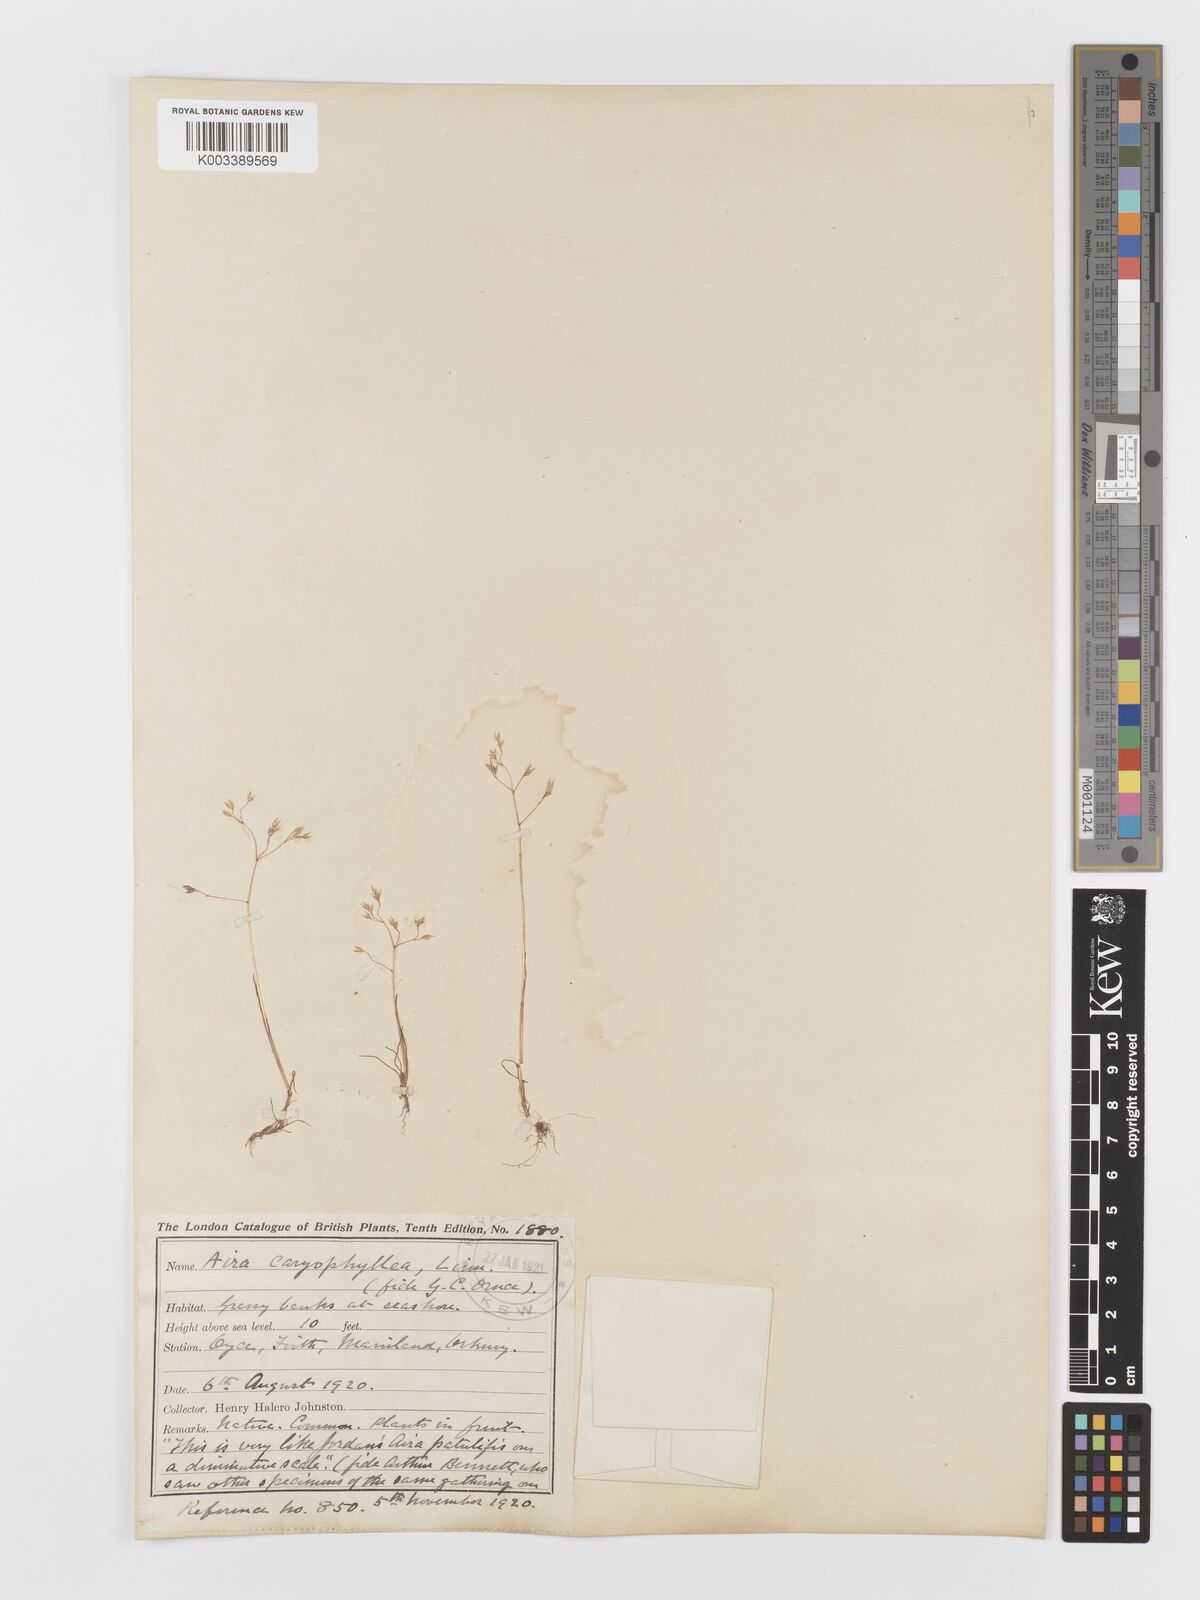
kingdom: Plantae
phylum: Tracheophyta
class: Liliopsida
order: Poales
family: Poaceae
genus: Aira
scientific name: Aira caryophyllea
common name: Silver hairgrass
